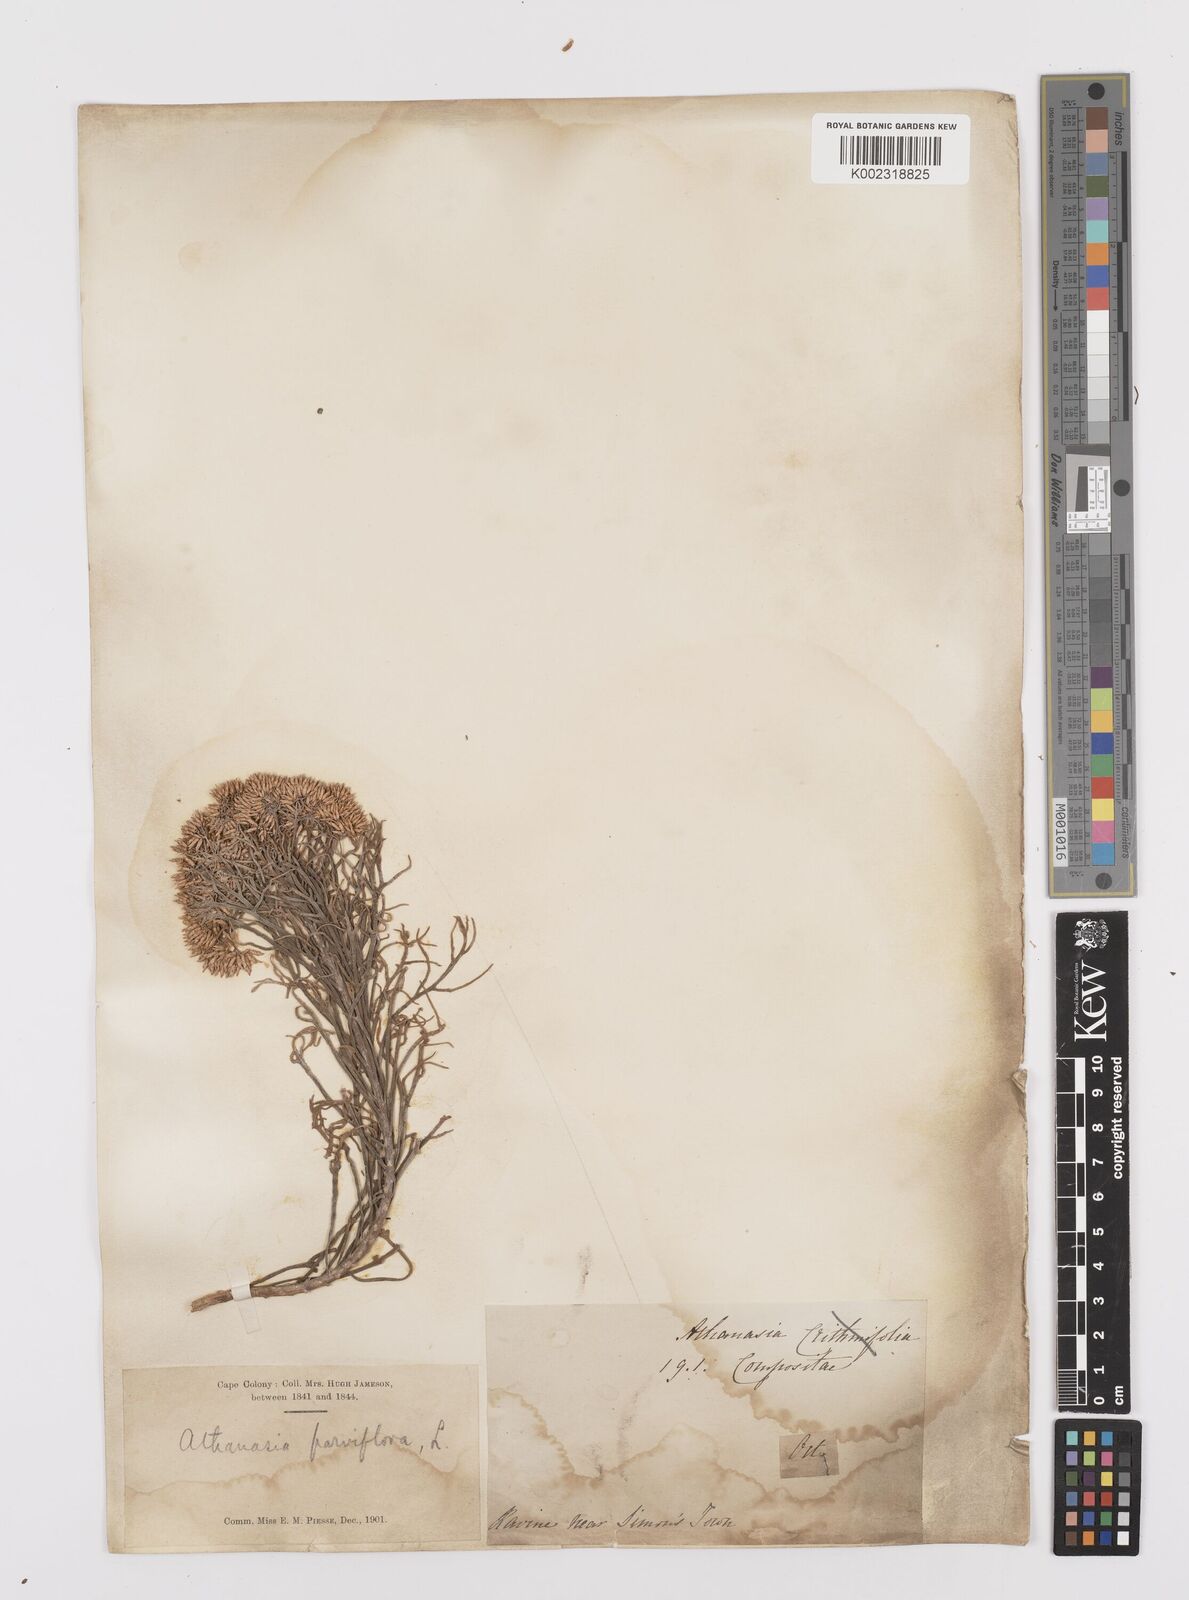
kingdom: Plantae
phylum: Tracheophyta
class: Magnoliopsida
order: Asterales
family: Asteraceae
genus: Hymenolepis
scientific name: Hymenolepis crithmifolia
